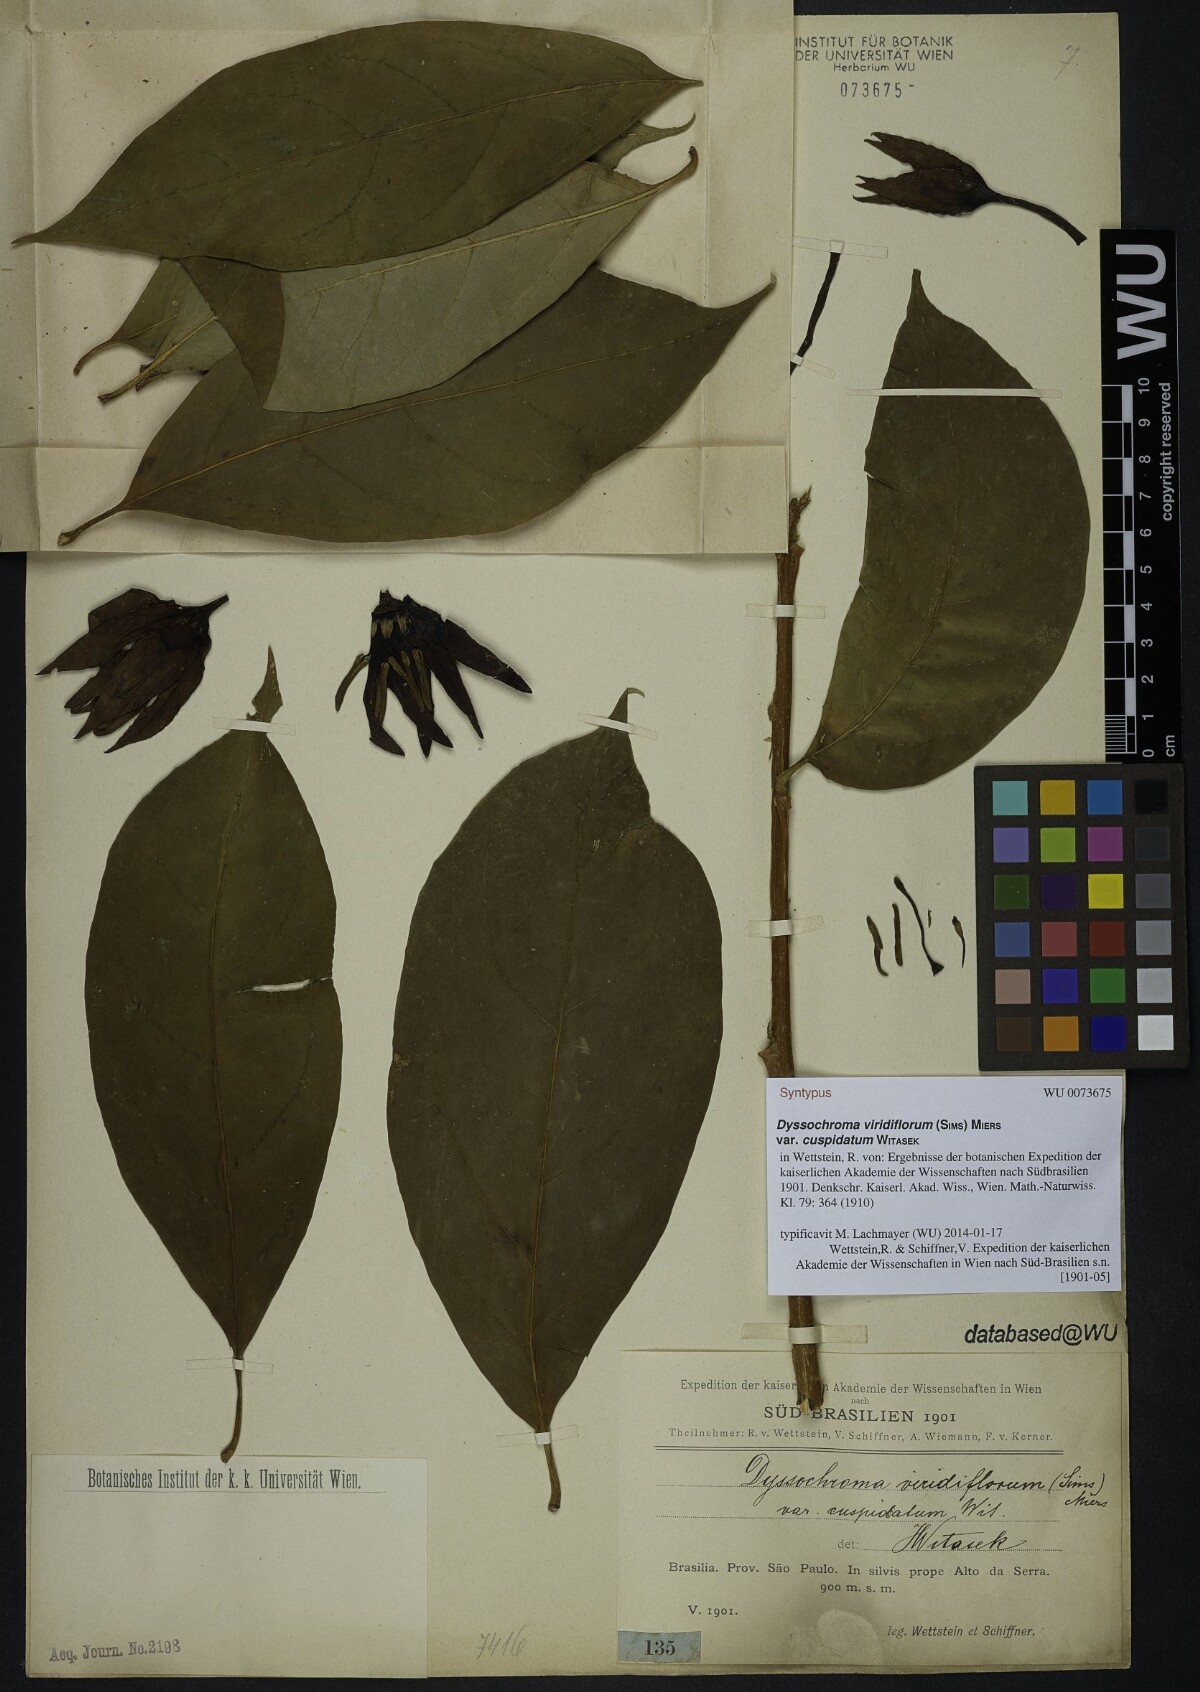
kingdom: Plantae
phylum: Tracheophyta
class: Magnoliopsida
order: Solanales
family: Solanaceae
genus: Dyssochroma
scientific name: Dyssochroma viridiflorum
